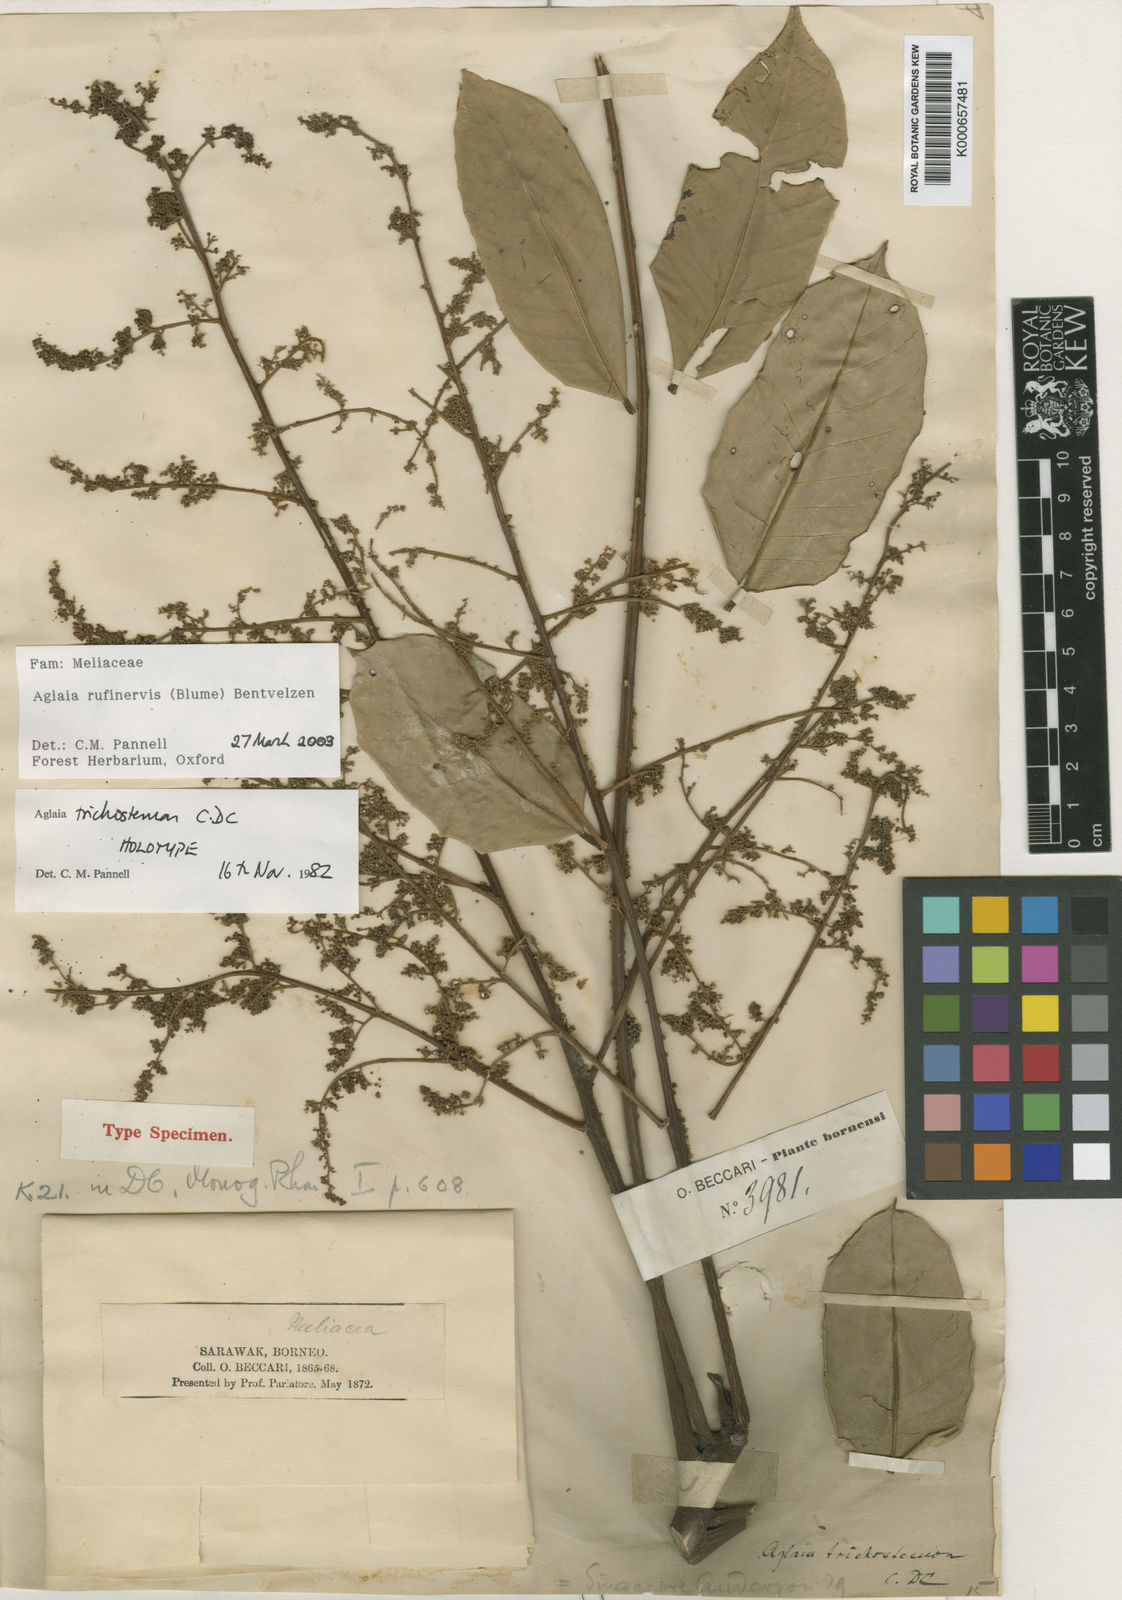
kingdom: Plantae
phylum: Tracheophyta
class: Magnoliopsida
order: Sapindales
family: Meliaceae
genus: Aglaia
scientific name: Aglaia rufinervis
